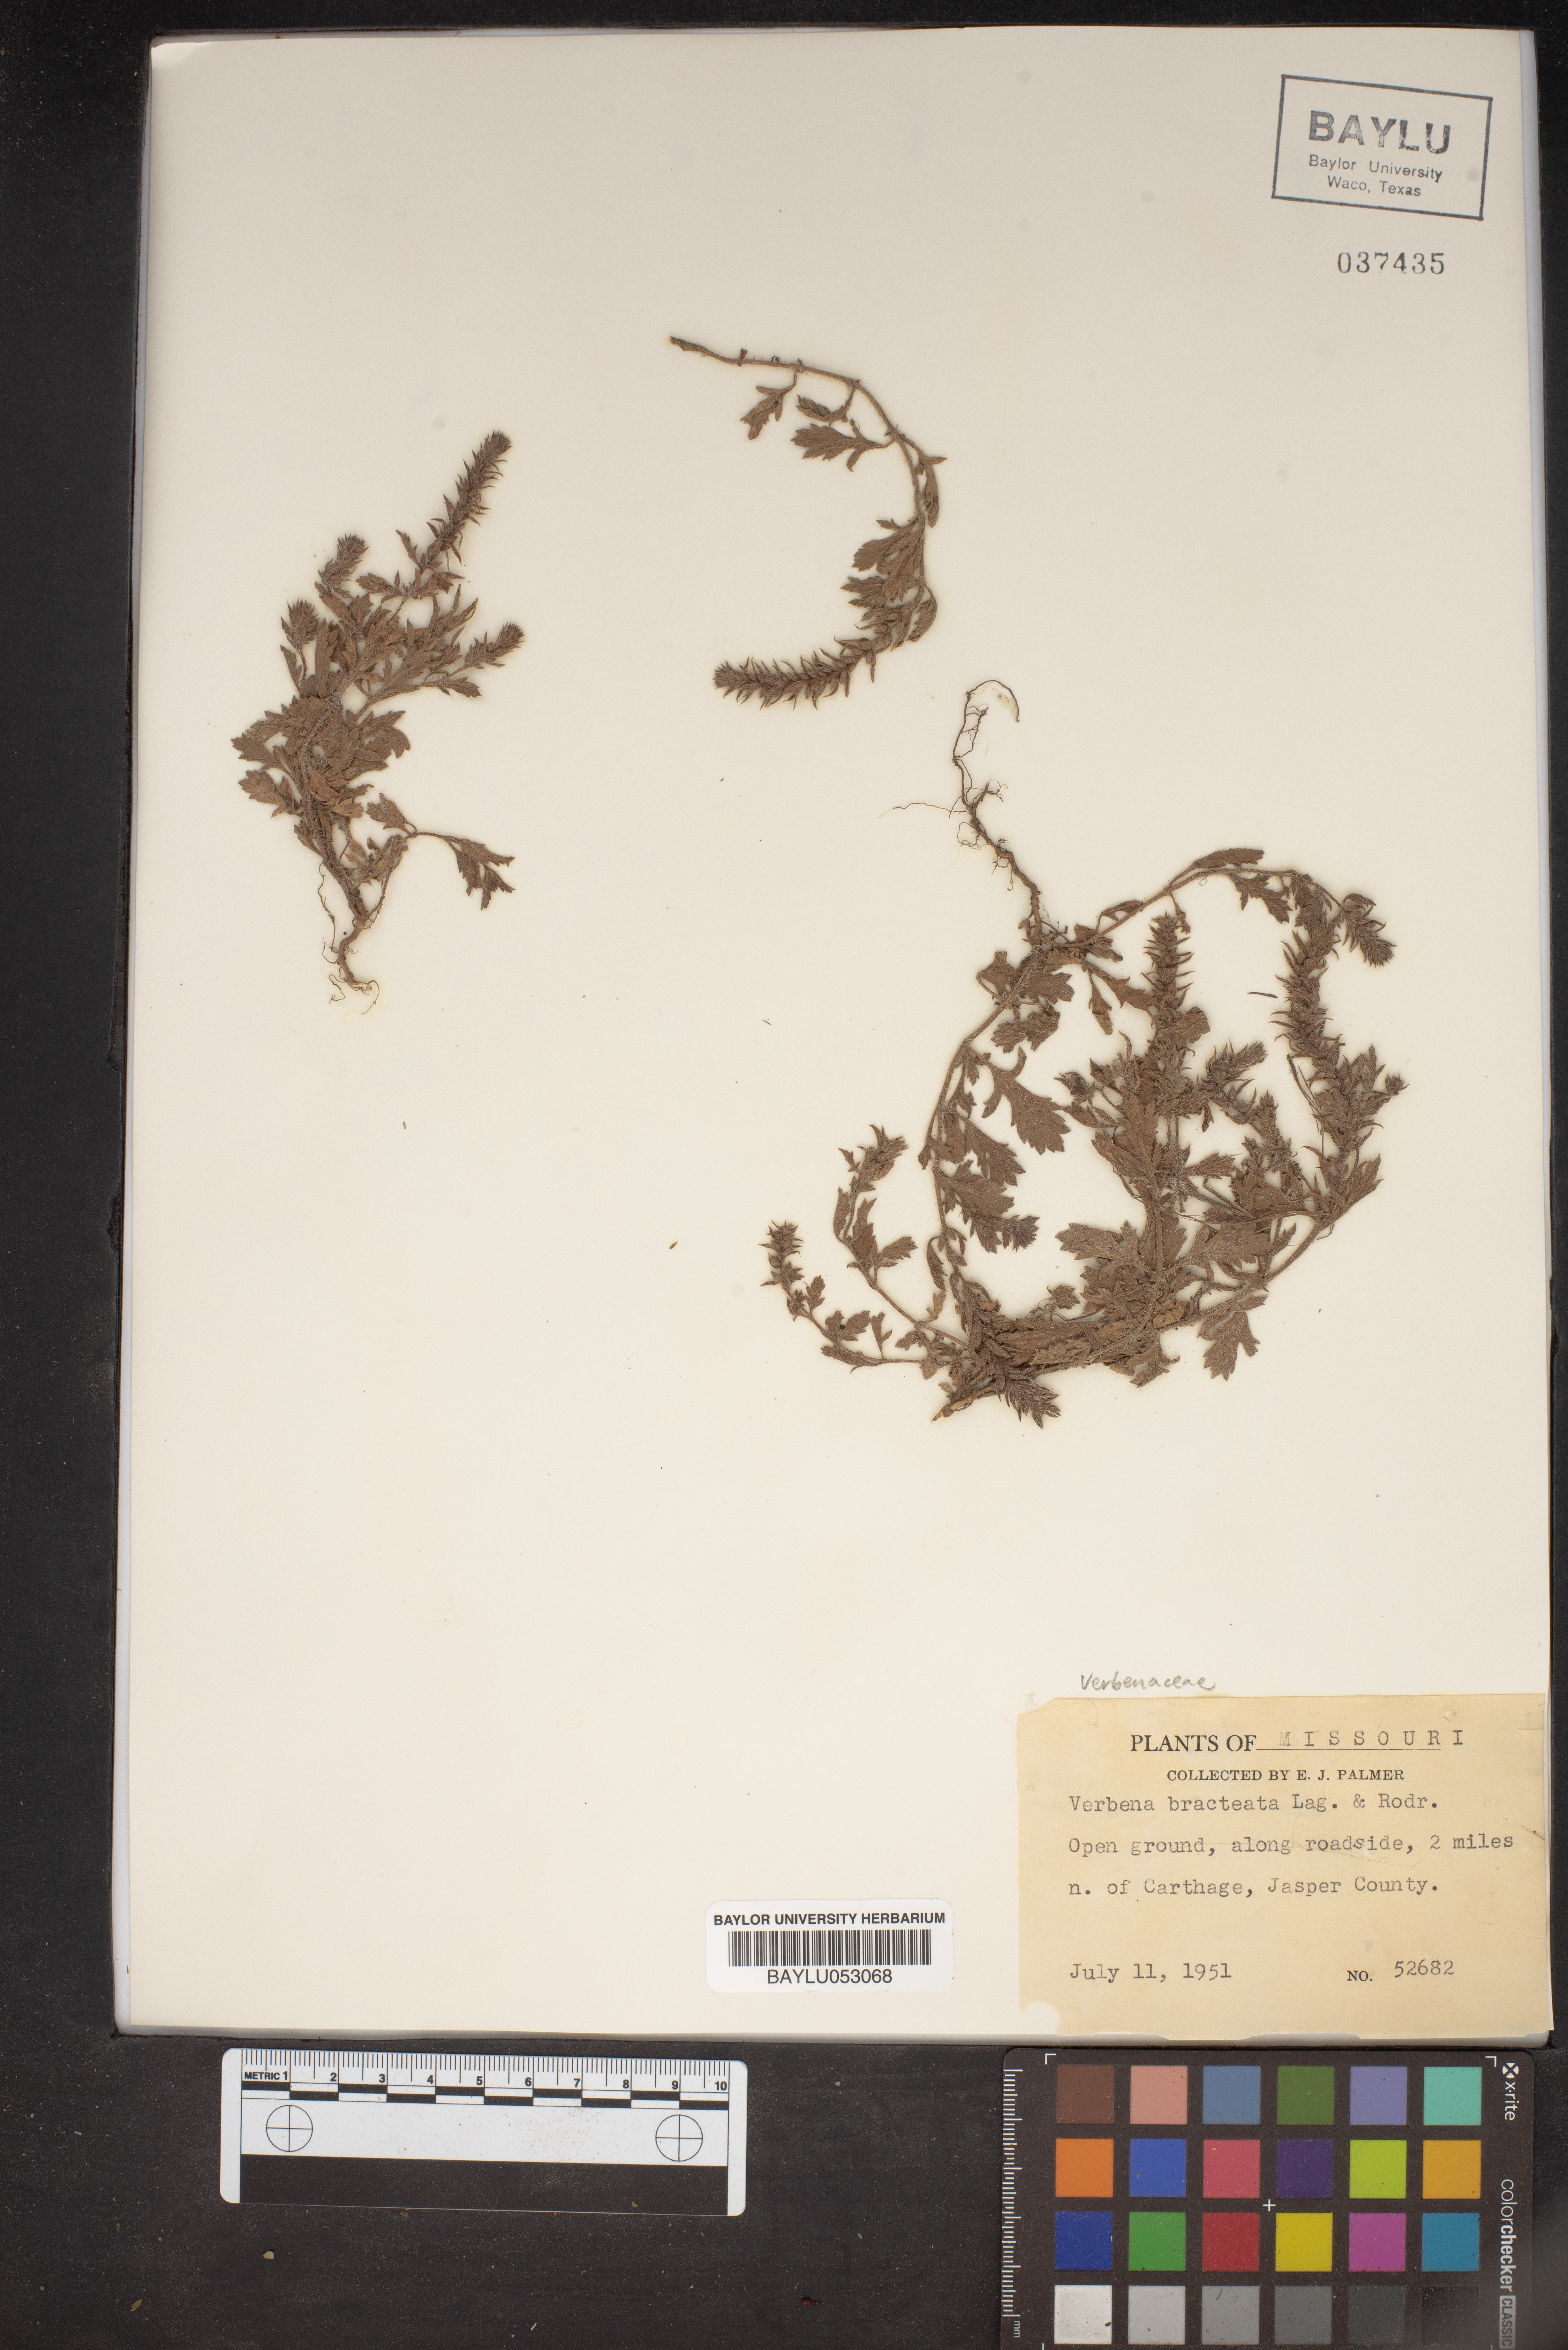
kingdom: Plantae
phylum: Tracheophyta
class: Magnoliopsida
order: Lamiales
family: Verbenaceae
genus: Verbena
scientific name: Verbena bracteata
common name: Bracted vervain
